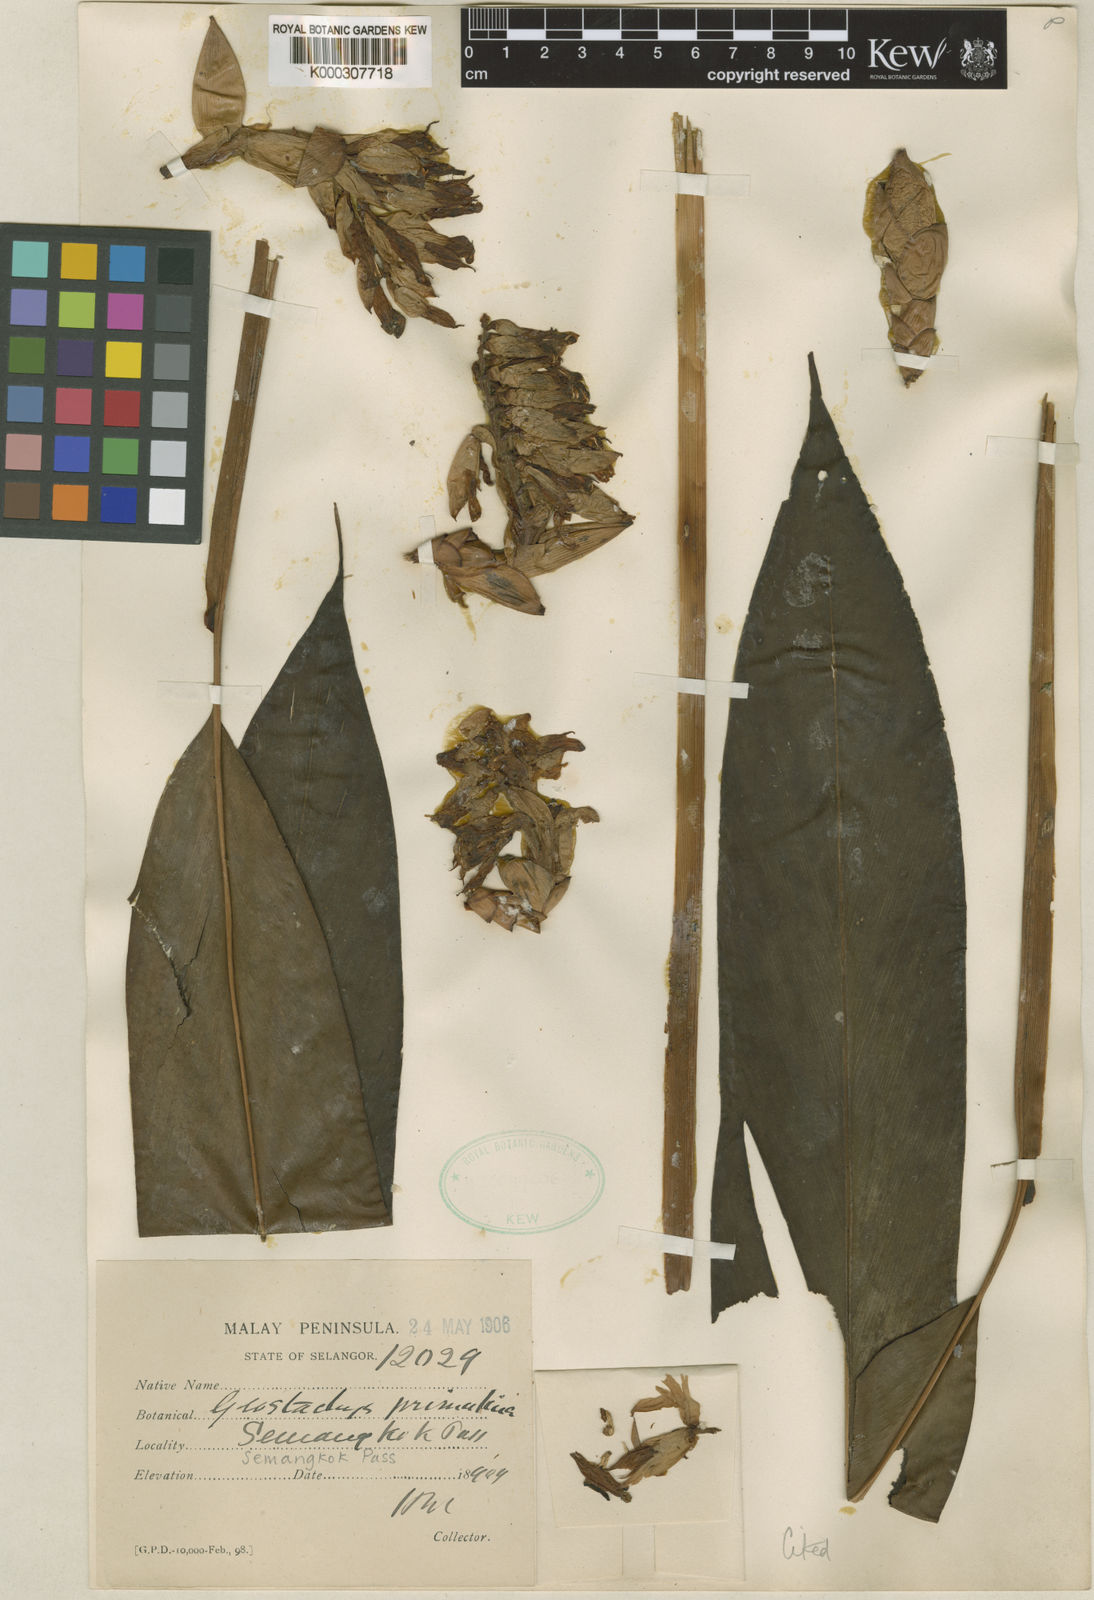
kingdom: Plantae
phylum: Tracheophyta
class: Liliopsida
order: Zingiberales
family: Zingiberaceae
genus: Geostachys
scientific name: Geostachys primulina
